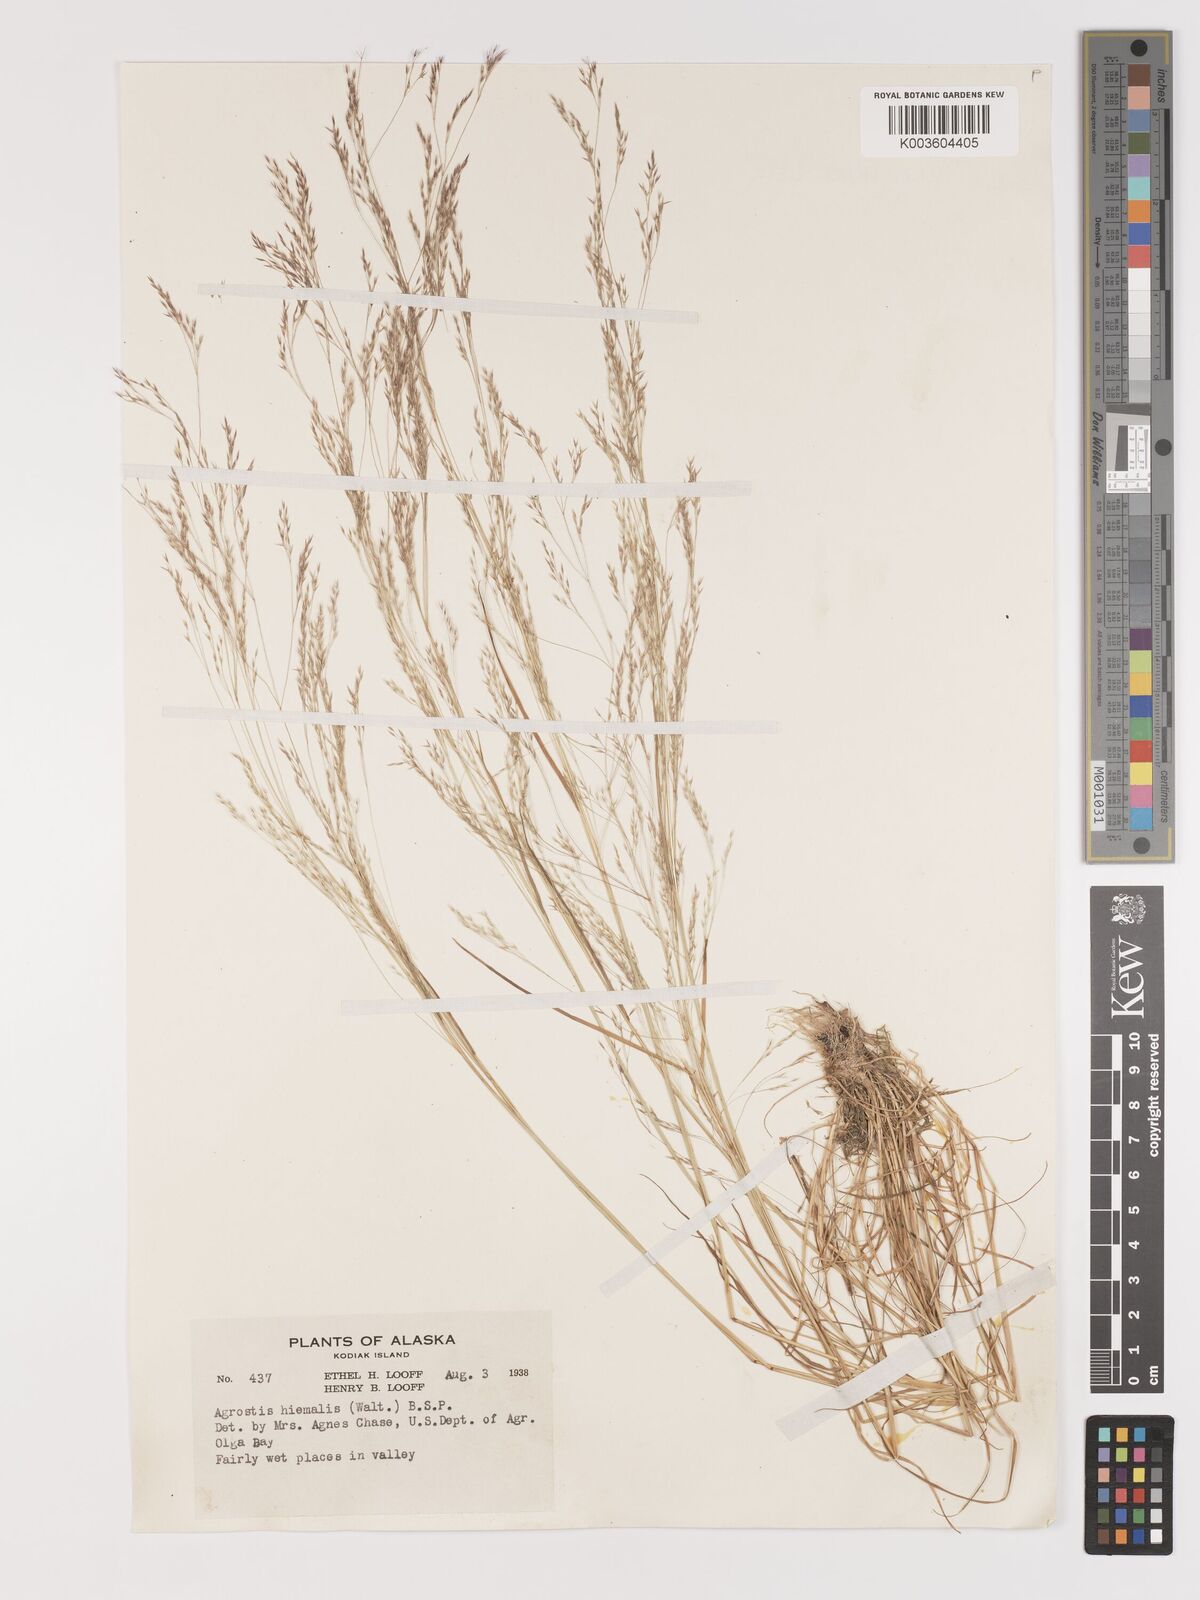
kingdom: Plantae
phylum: Tracheophyta
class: Liliopsida
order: Poales
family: Poaceae
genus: Agrostis
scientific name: Agrostis hyemalis
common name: Small bent
